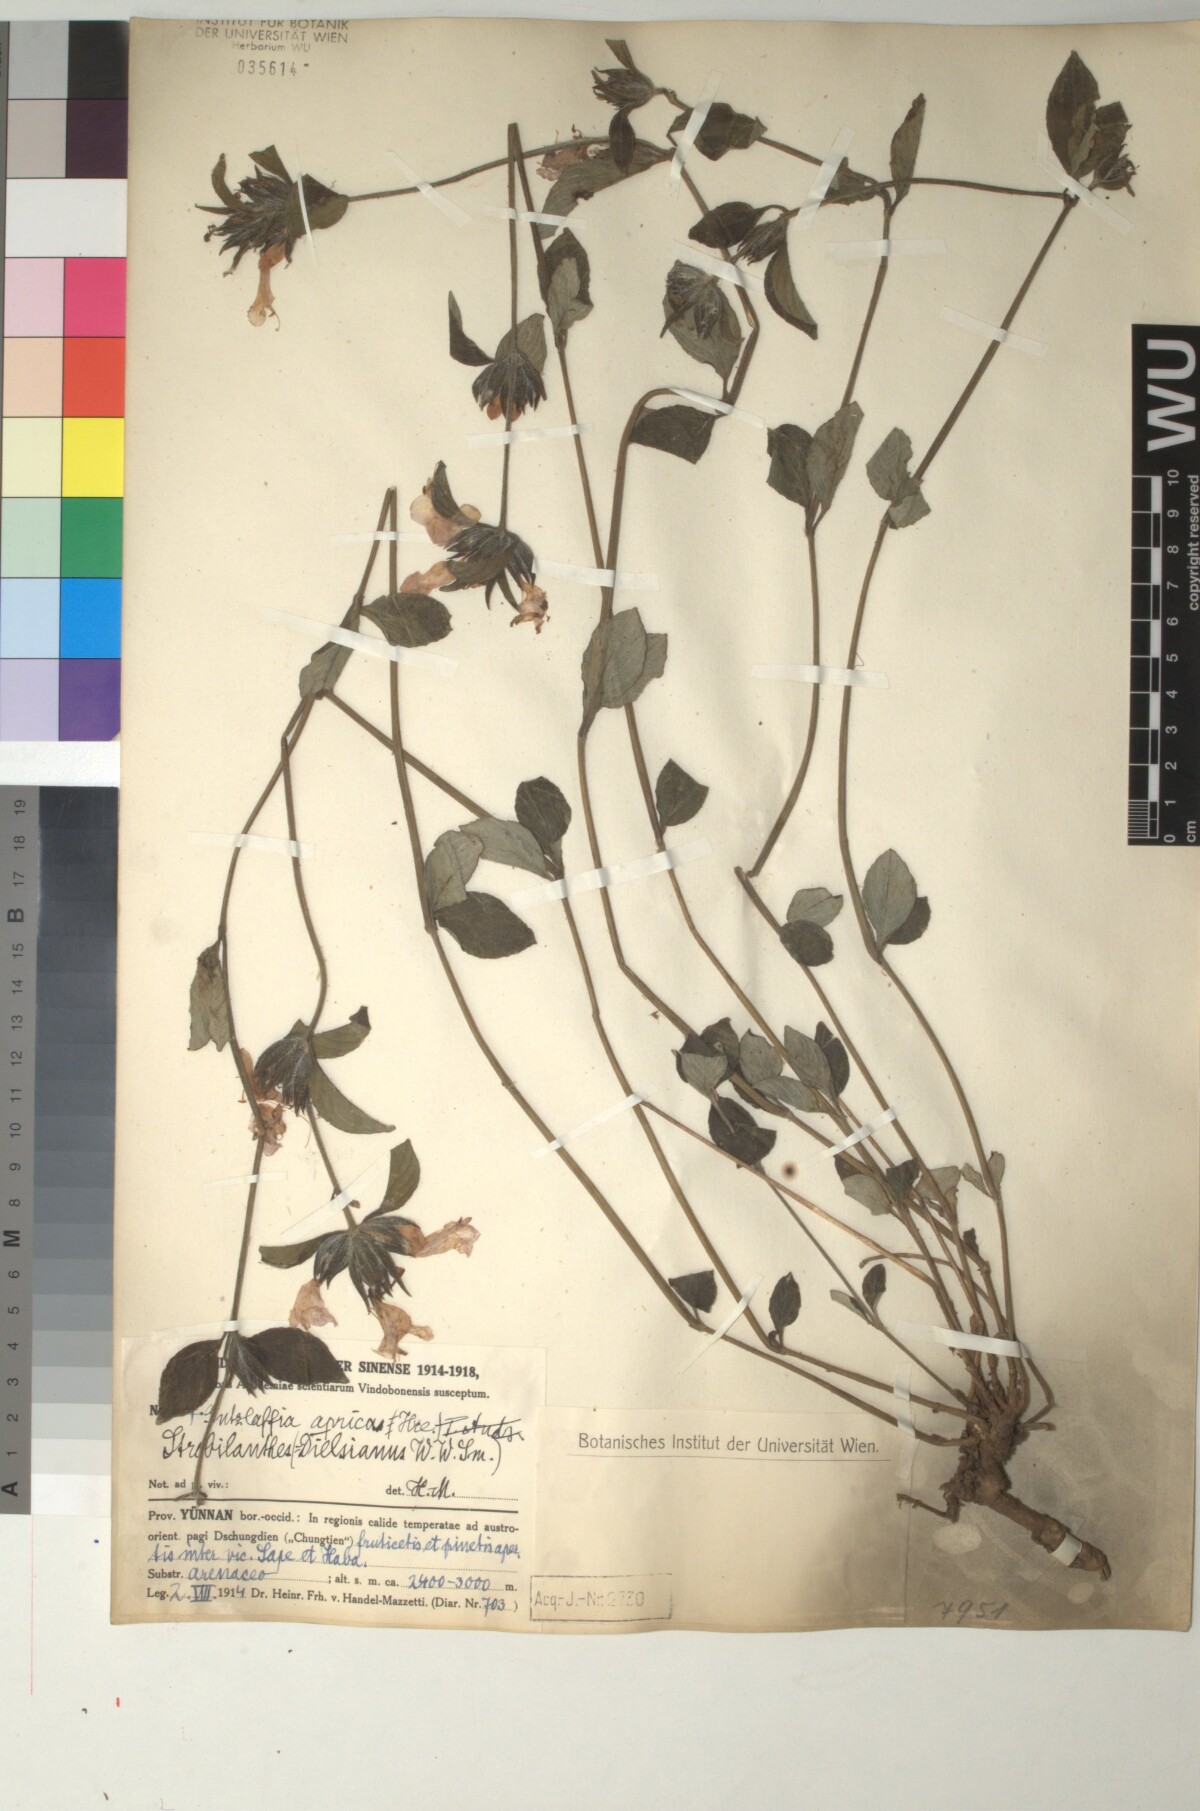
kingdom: Plantae
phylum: Tracheophyta
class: Magnoliopsida
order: Lamiales
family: Acanthaceae
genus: Strobilanthes
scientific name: Strobilanthes aprica
